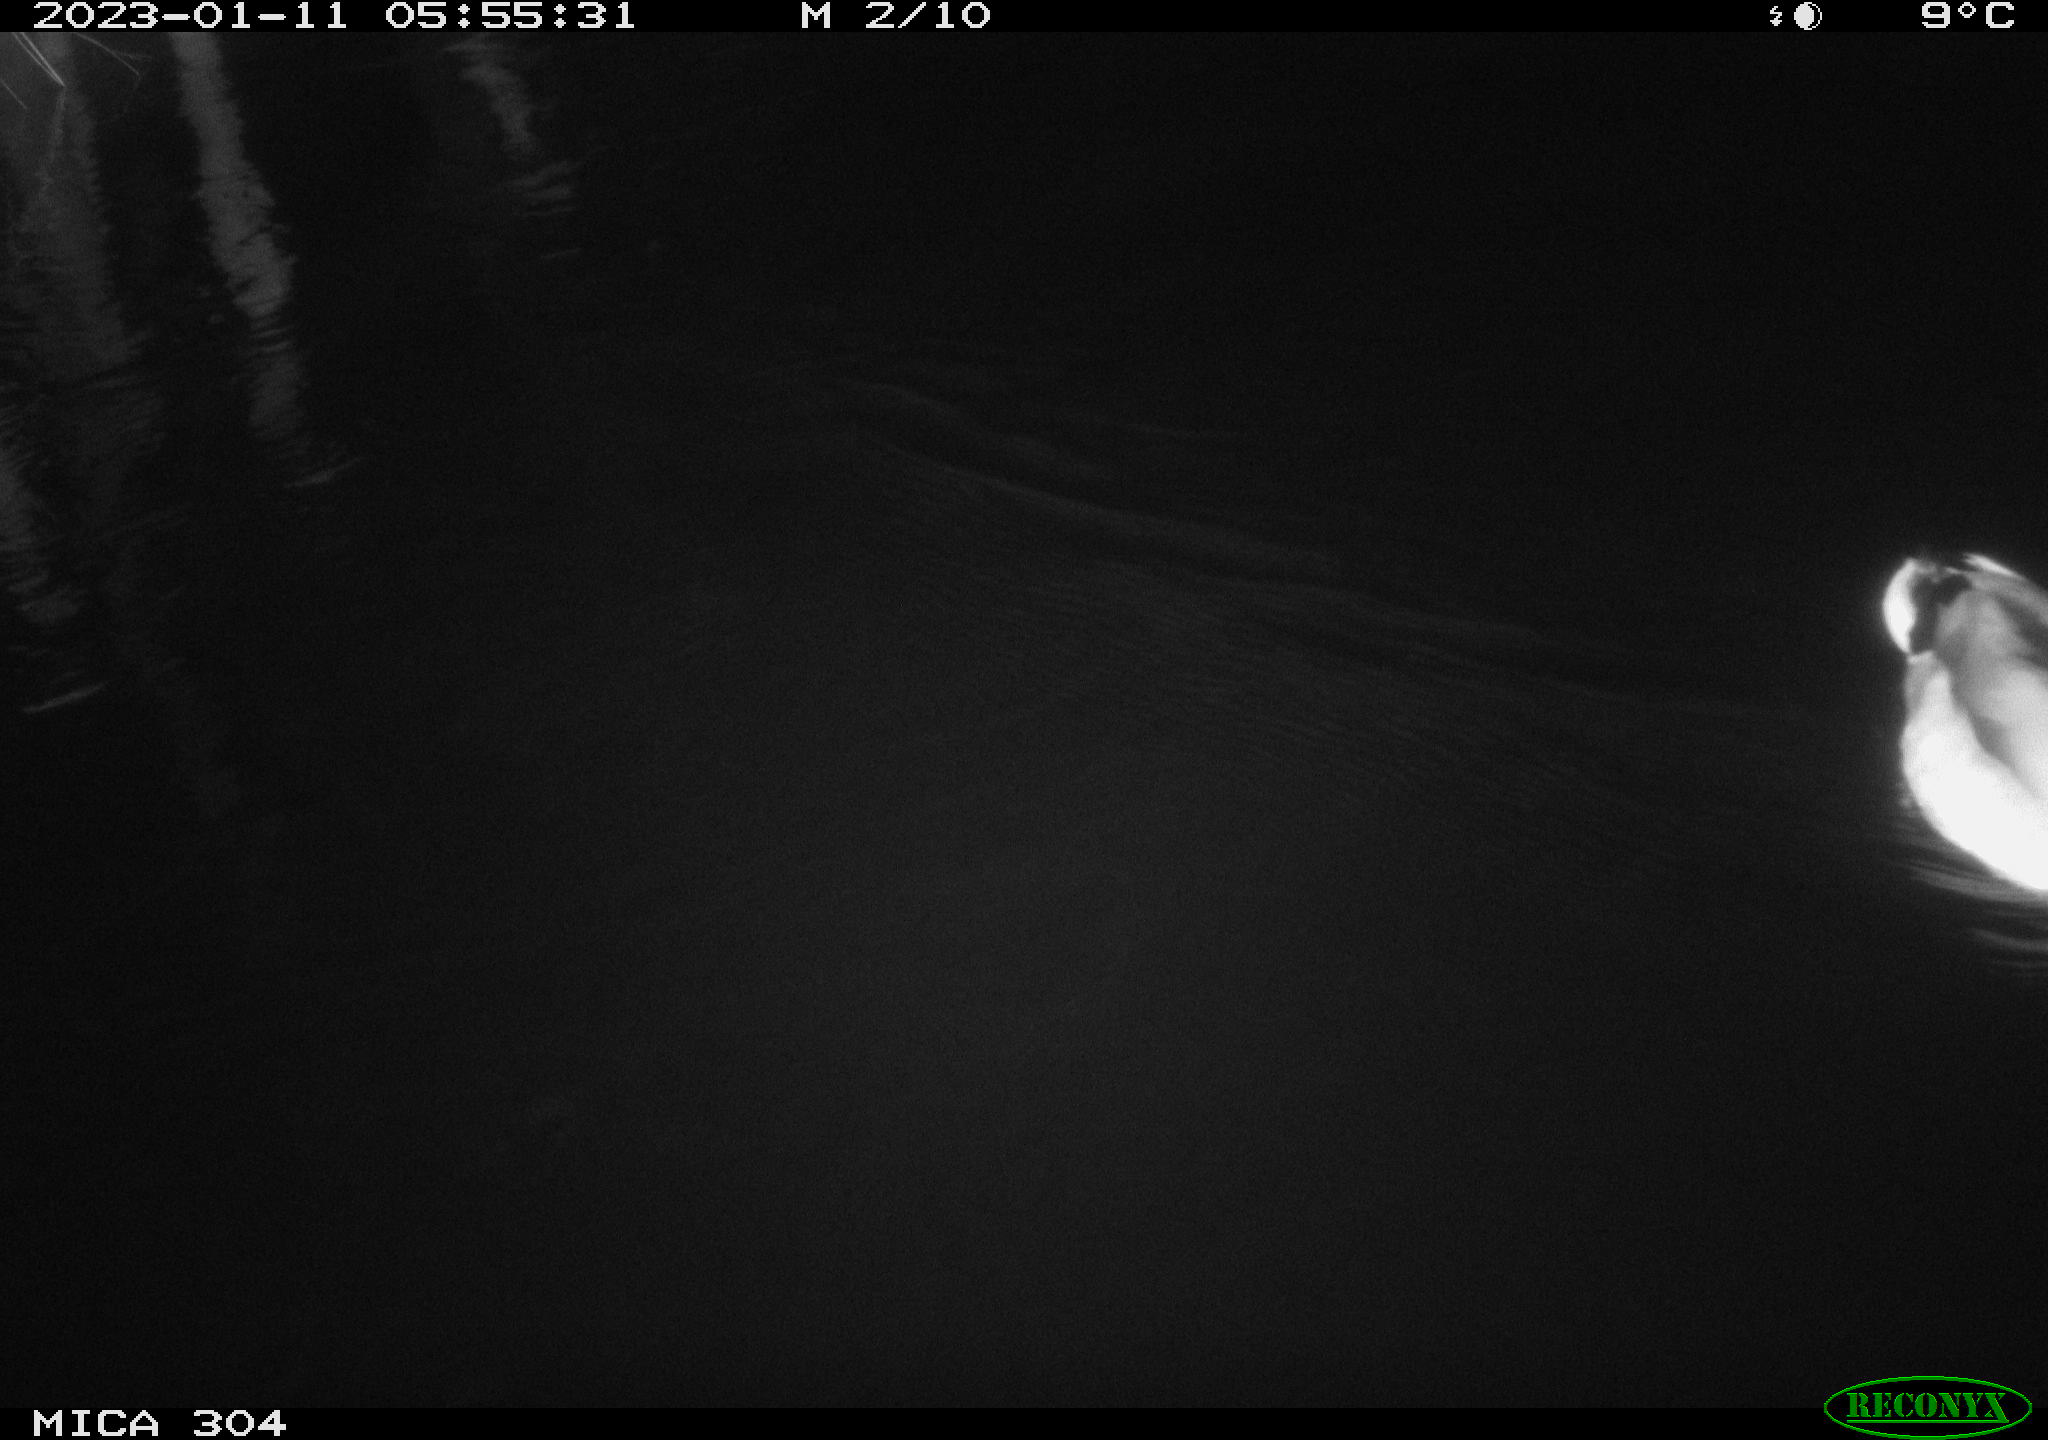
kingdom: Animalia
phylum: Chordata
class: Aves
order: Anseriformes
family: Anatidae
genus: Anas
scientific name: Anas
